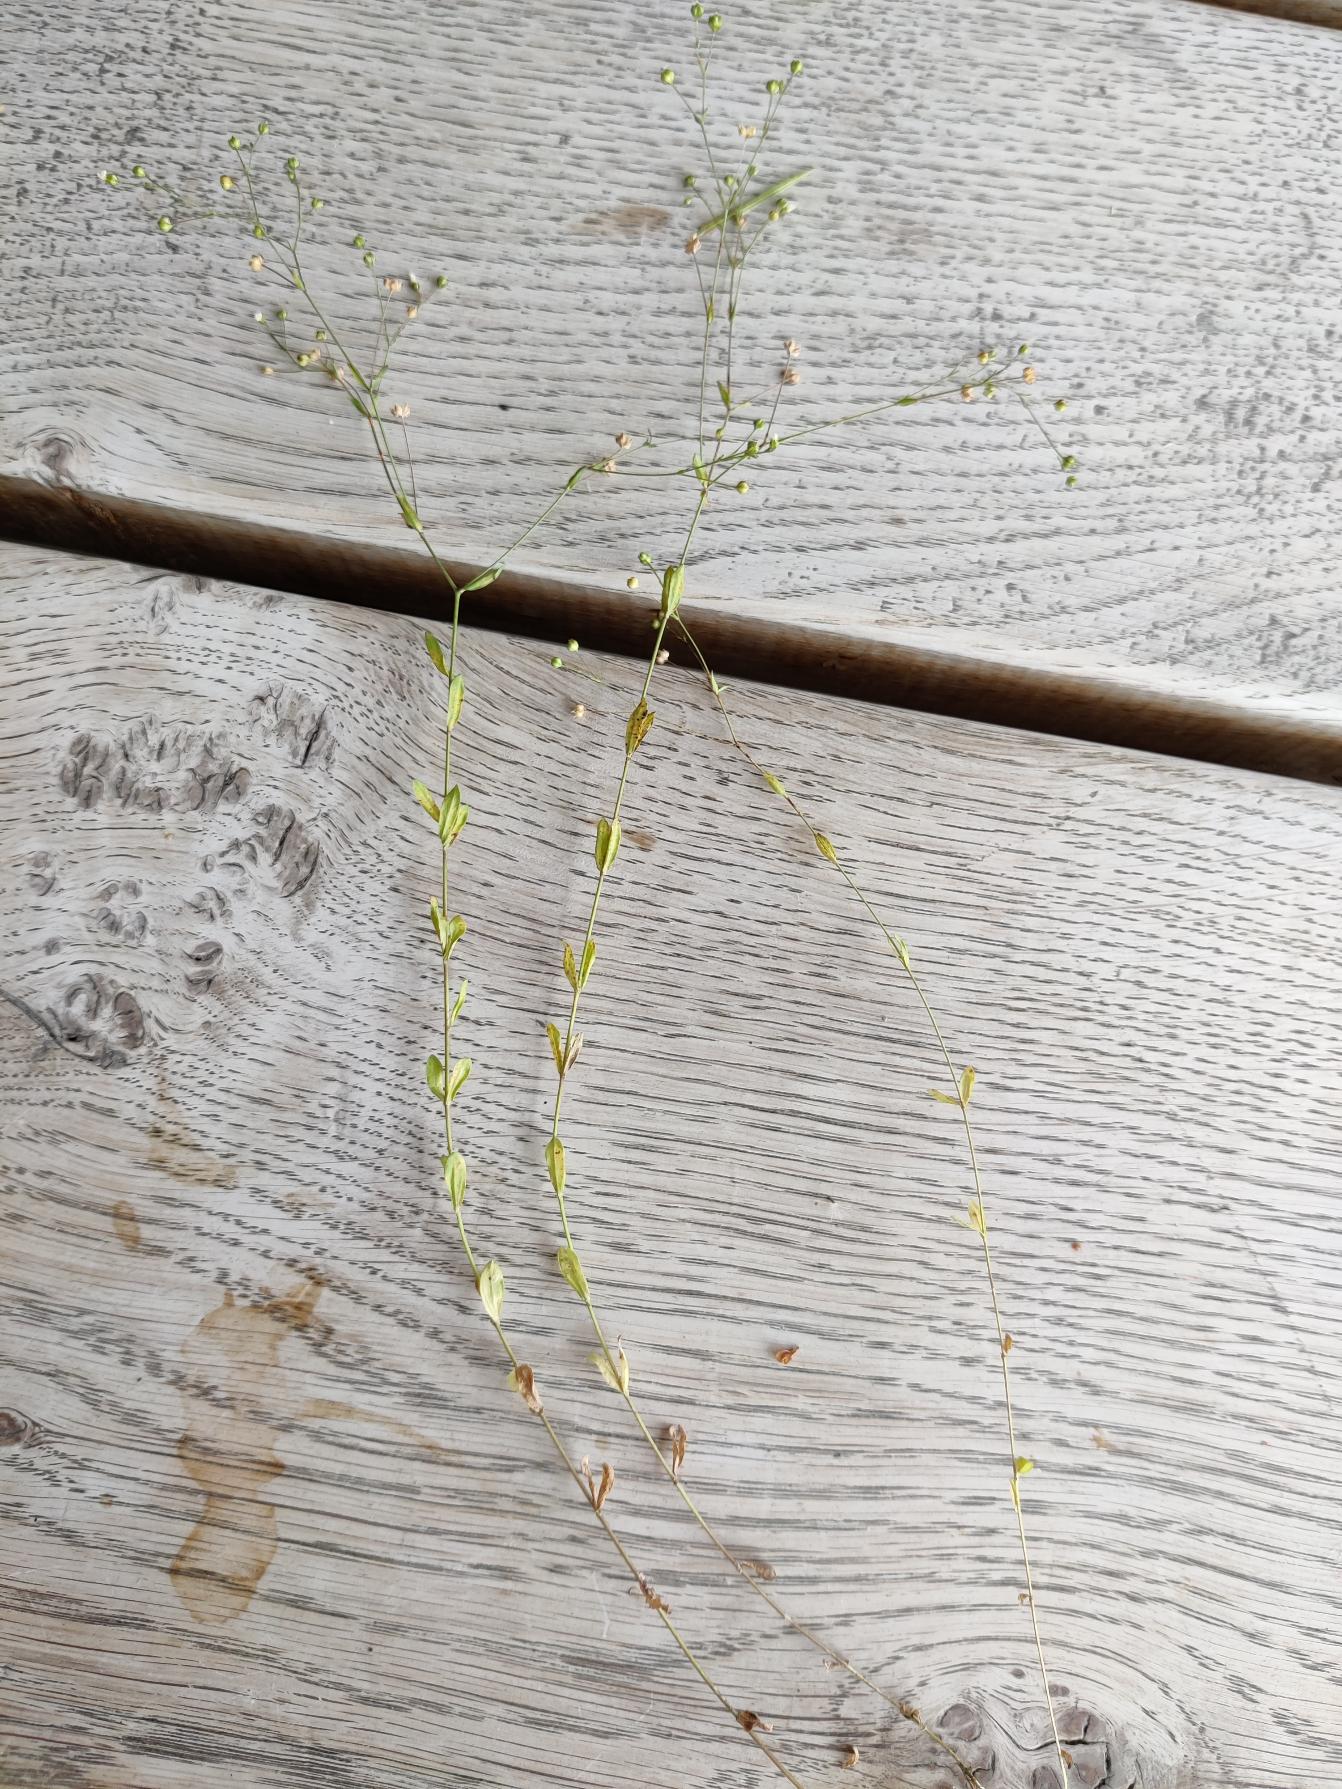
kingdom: Plantae
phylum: Tracheophyta
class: Magnoliopsida
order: Malpighiales
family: Linaceae
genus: Linum
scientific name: Linum catharticum
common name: Vild hør
